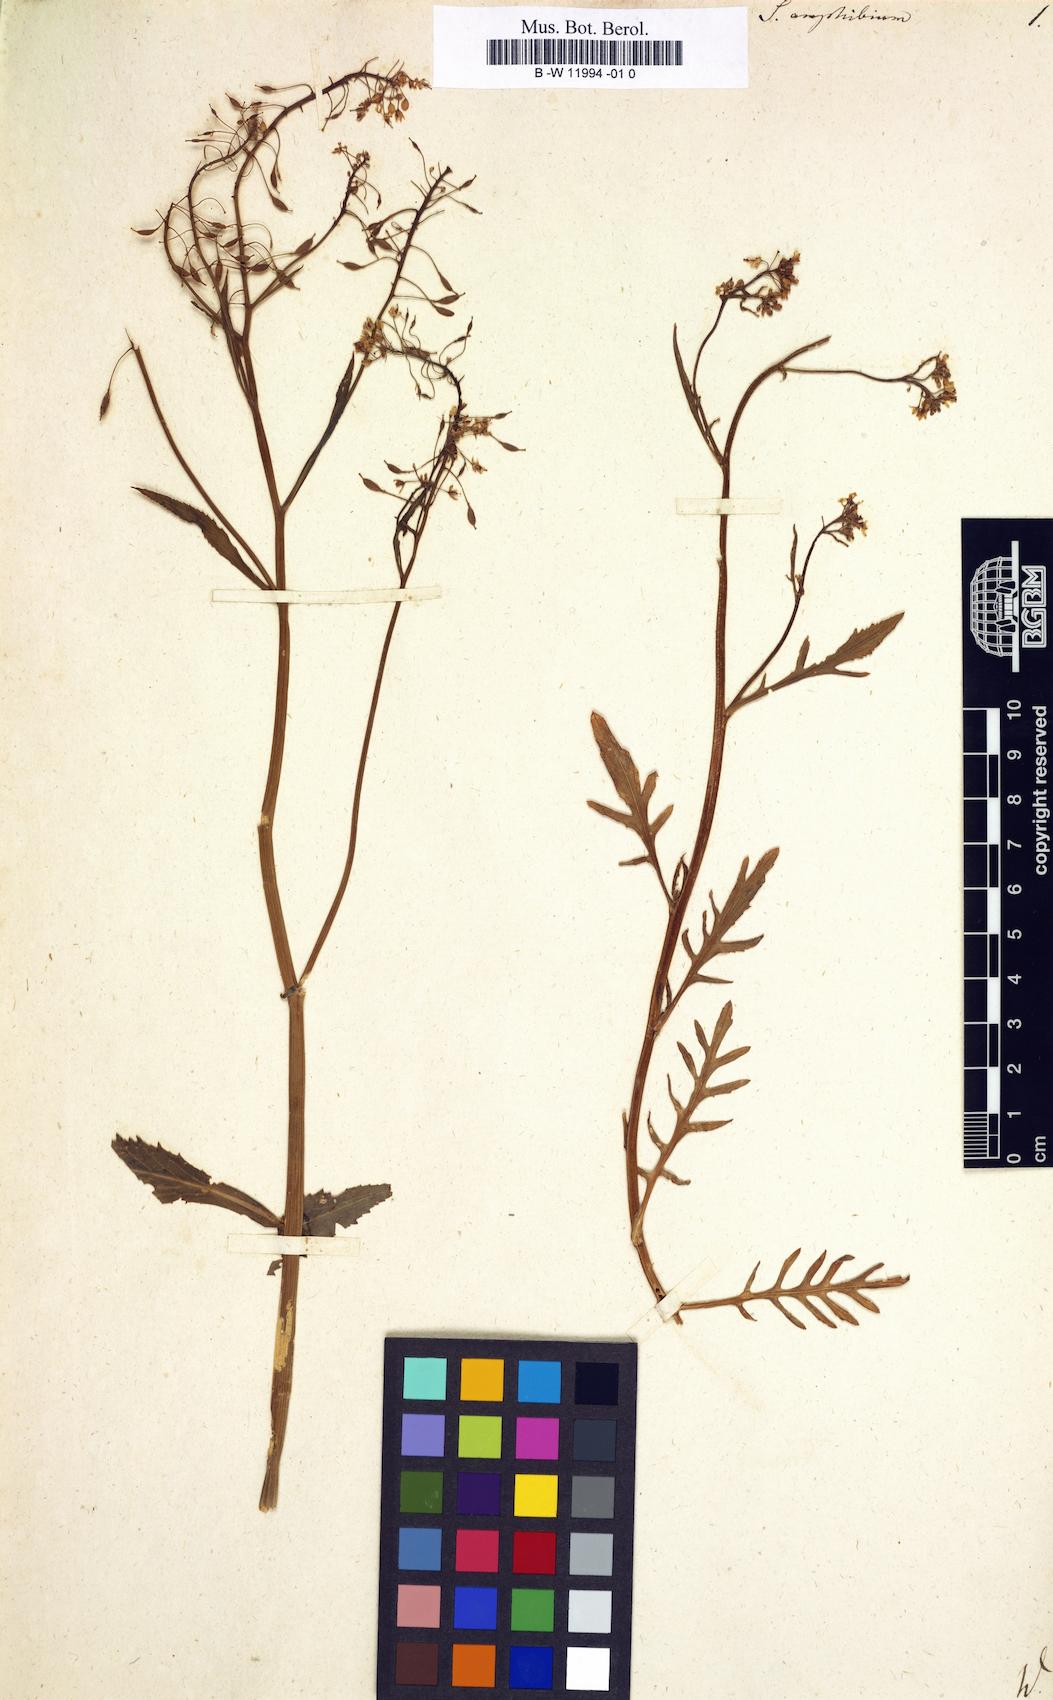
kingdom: Plantae
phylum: Tracheophyta
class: Magnoliopsida
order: Brassicales
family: Brassicaceae
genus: Rorippa
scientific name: Rorippa amphibia
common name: Great yellow-cress
